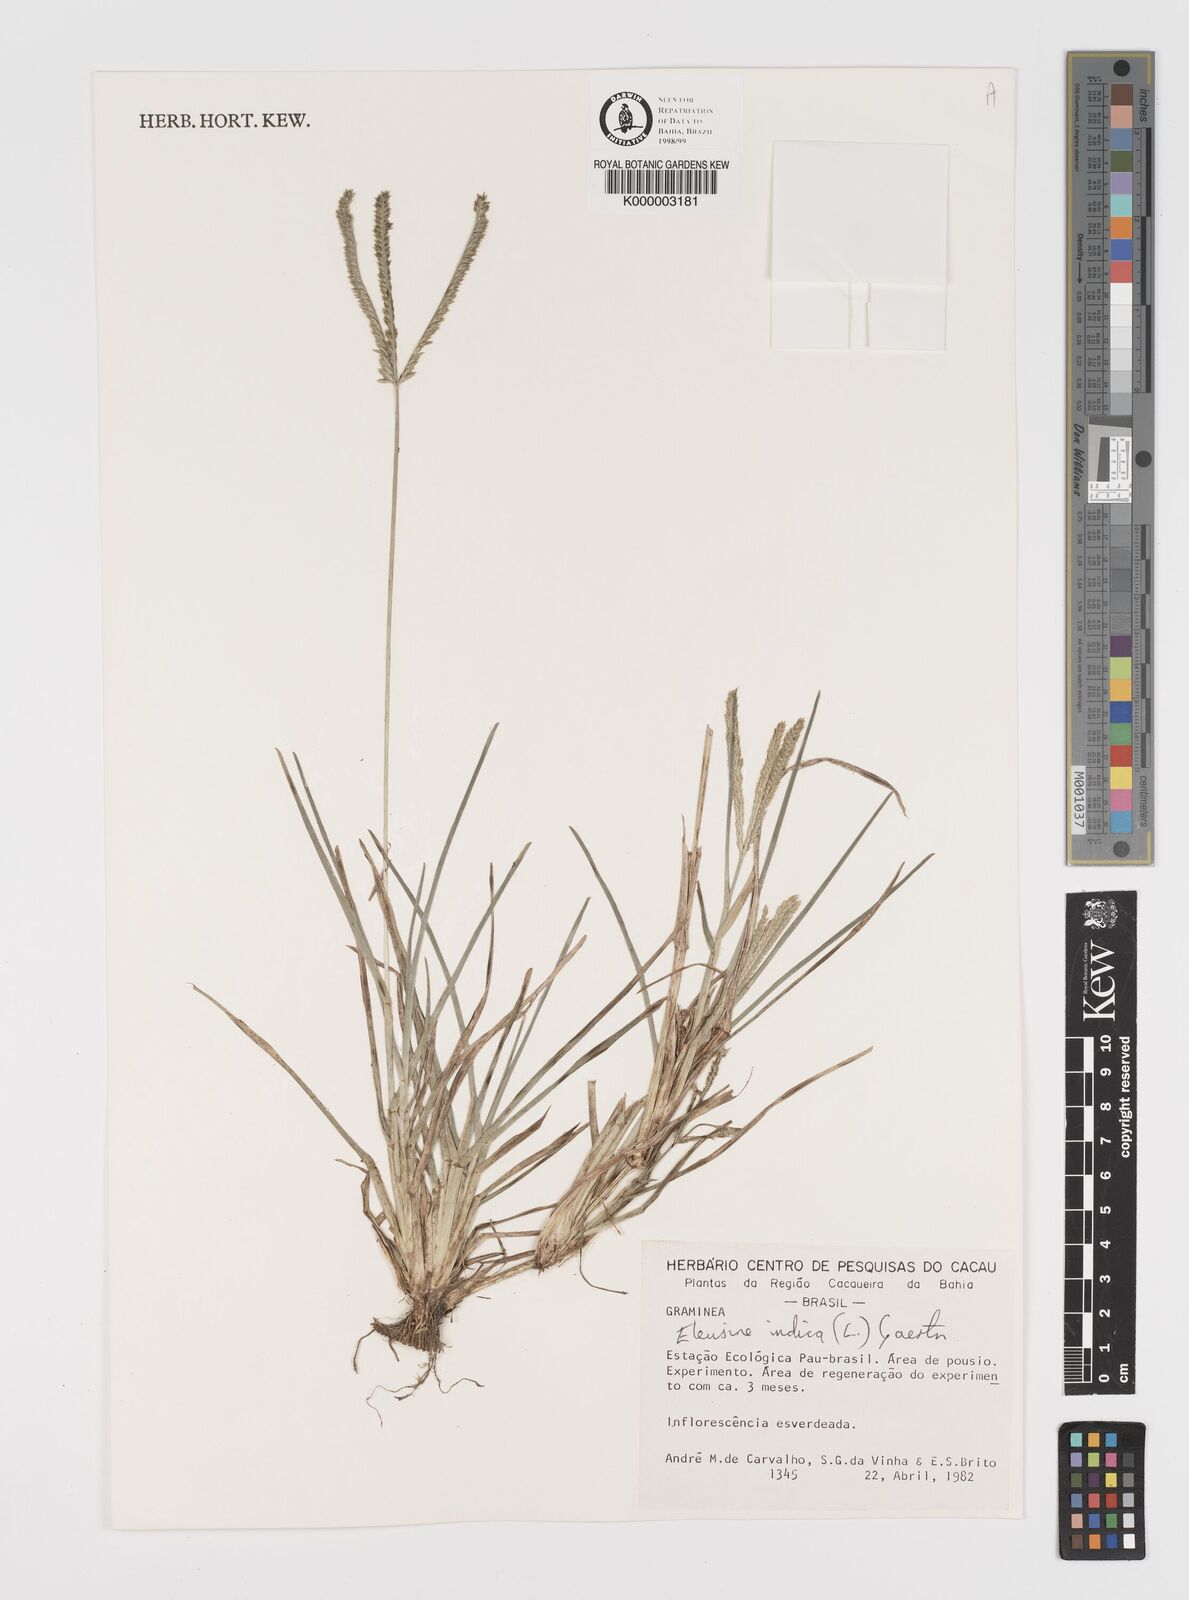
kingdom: Plantae
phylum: Tracheophyta
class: Liliopsida
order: Poales
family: Poaceae
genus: Eleusine
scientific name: Eleusine indica
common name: Yard-grass
